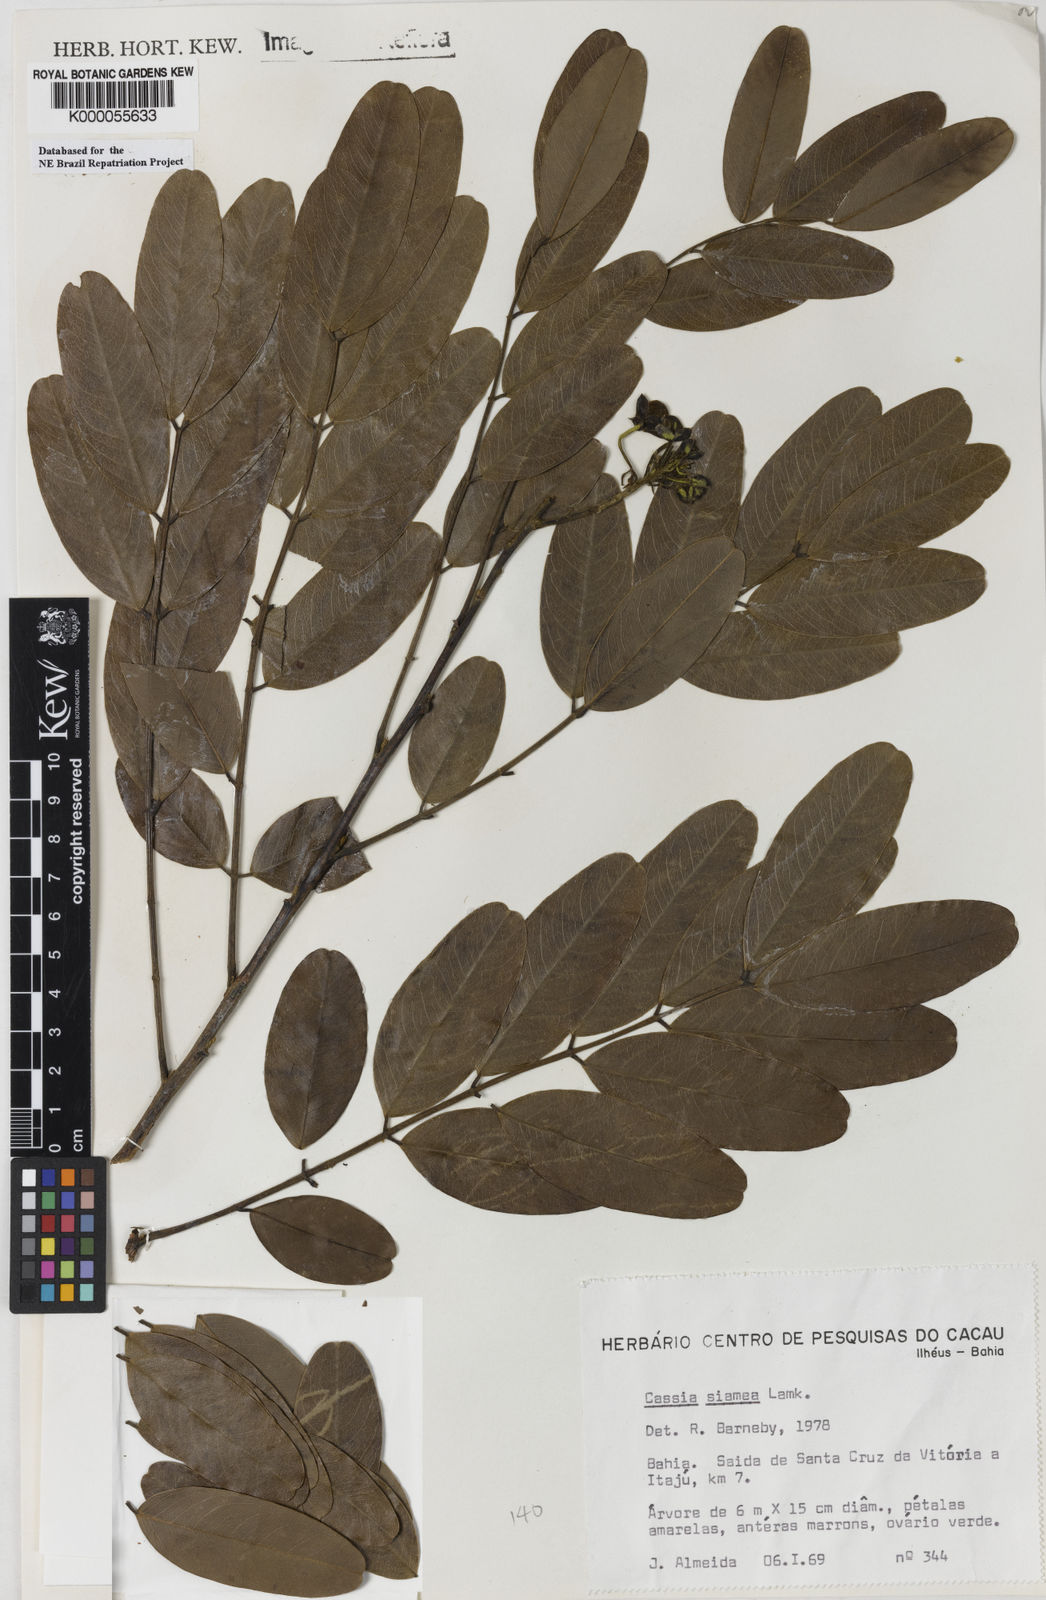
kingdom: Plantae
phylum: Tracheophyta
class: Magnoliopsida
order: Fabales
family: Fabaceae
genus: Senna
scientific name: Senna siamea
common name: Siamese cassia
